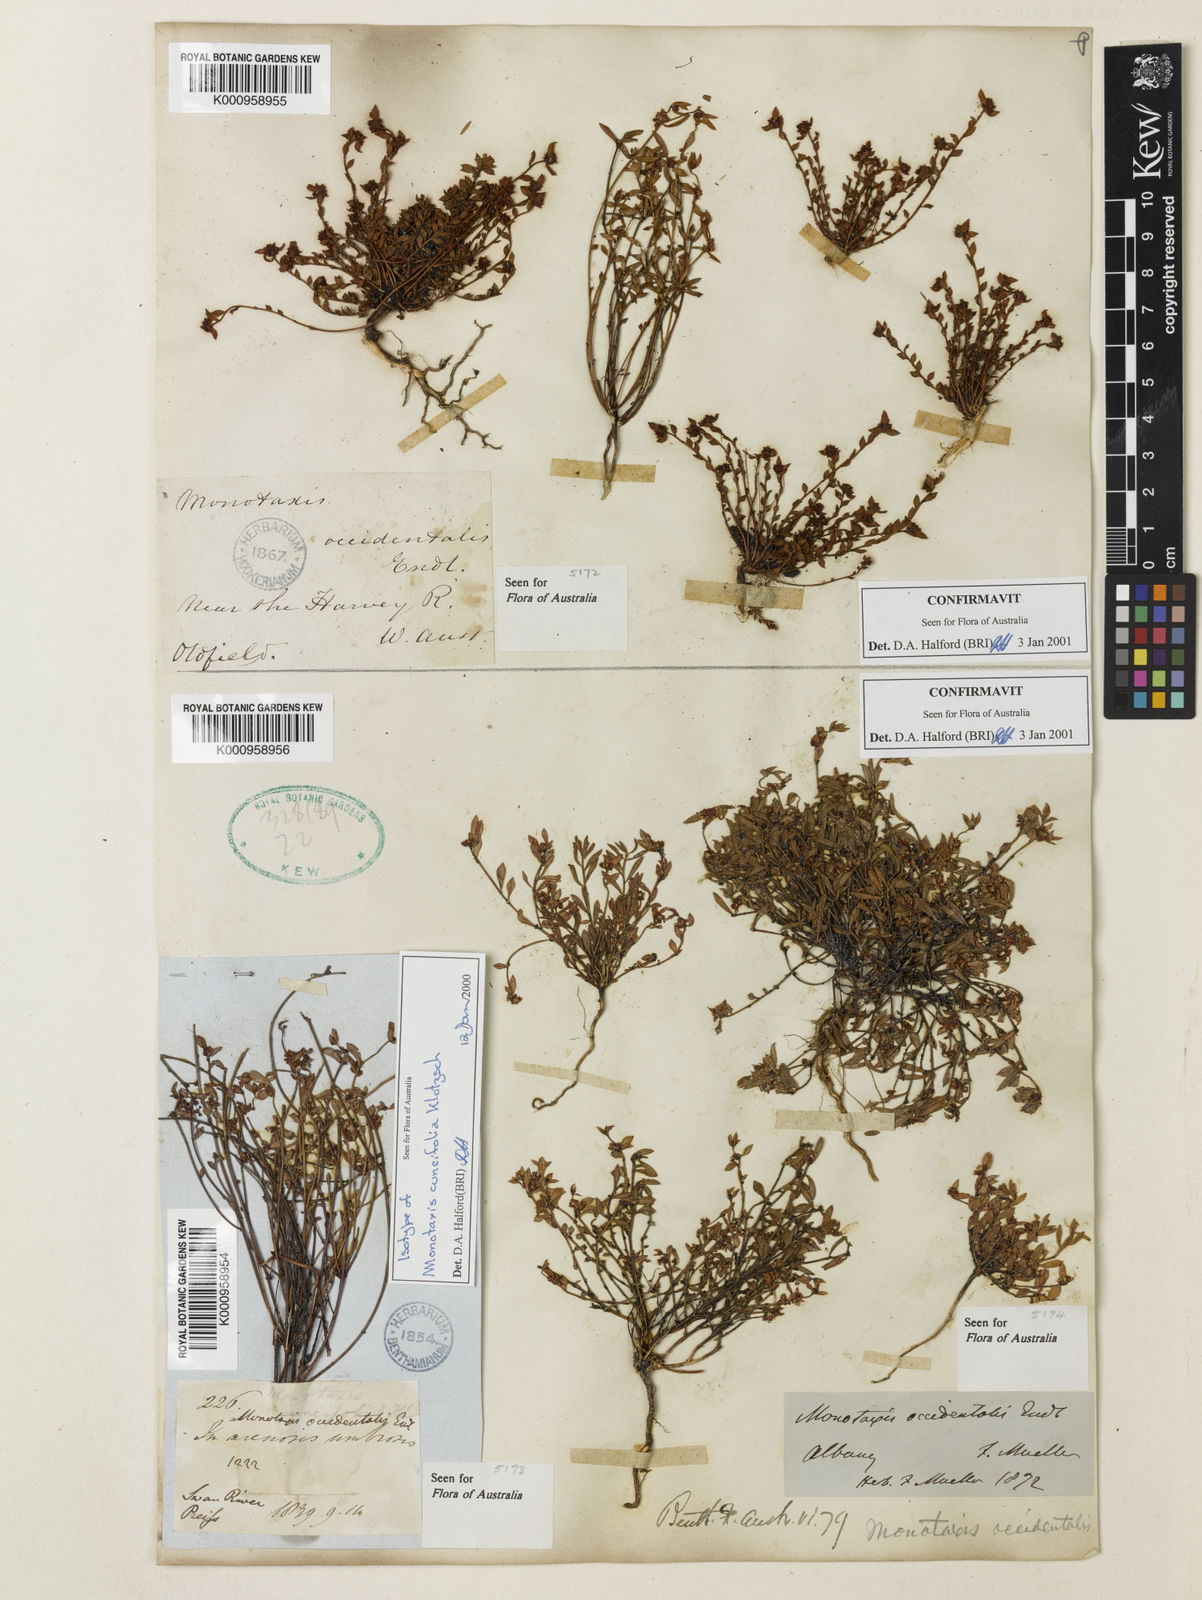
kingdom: Plantae
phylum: Tracheophyta
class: Magnoliopsida
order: Malpighiales
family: Euphorbiaceae
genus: Monotaxis
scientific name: Monotaxis occidentalis
